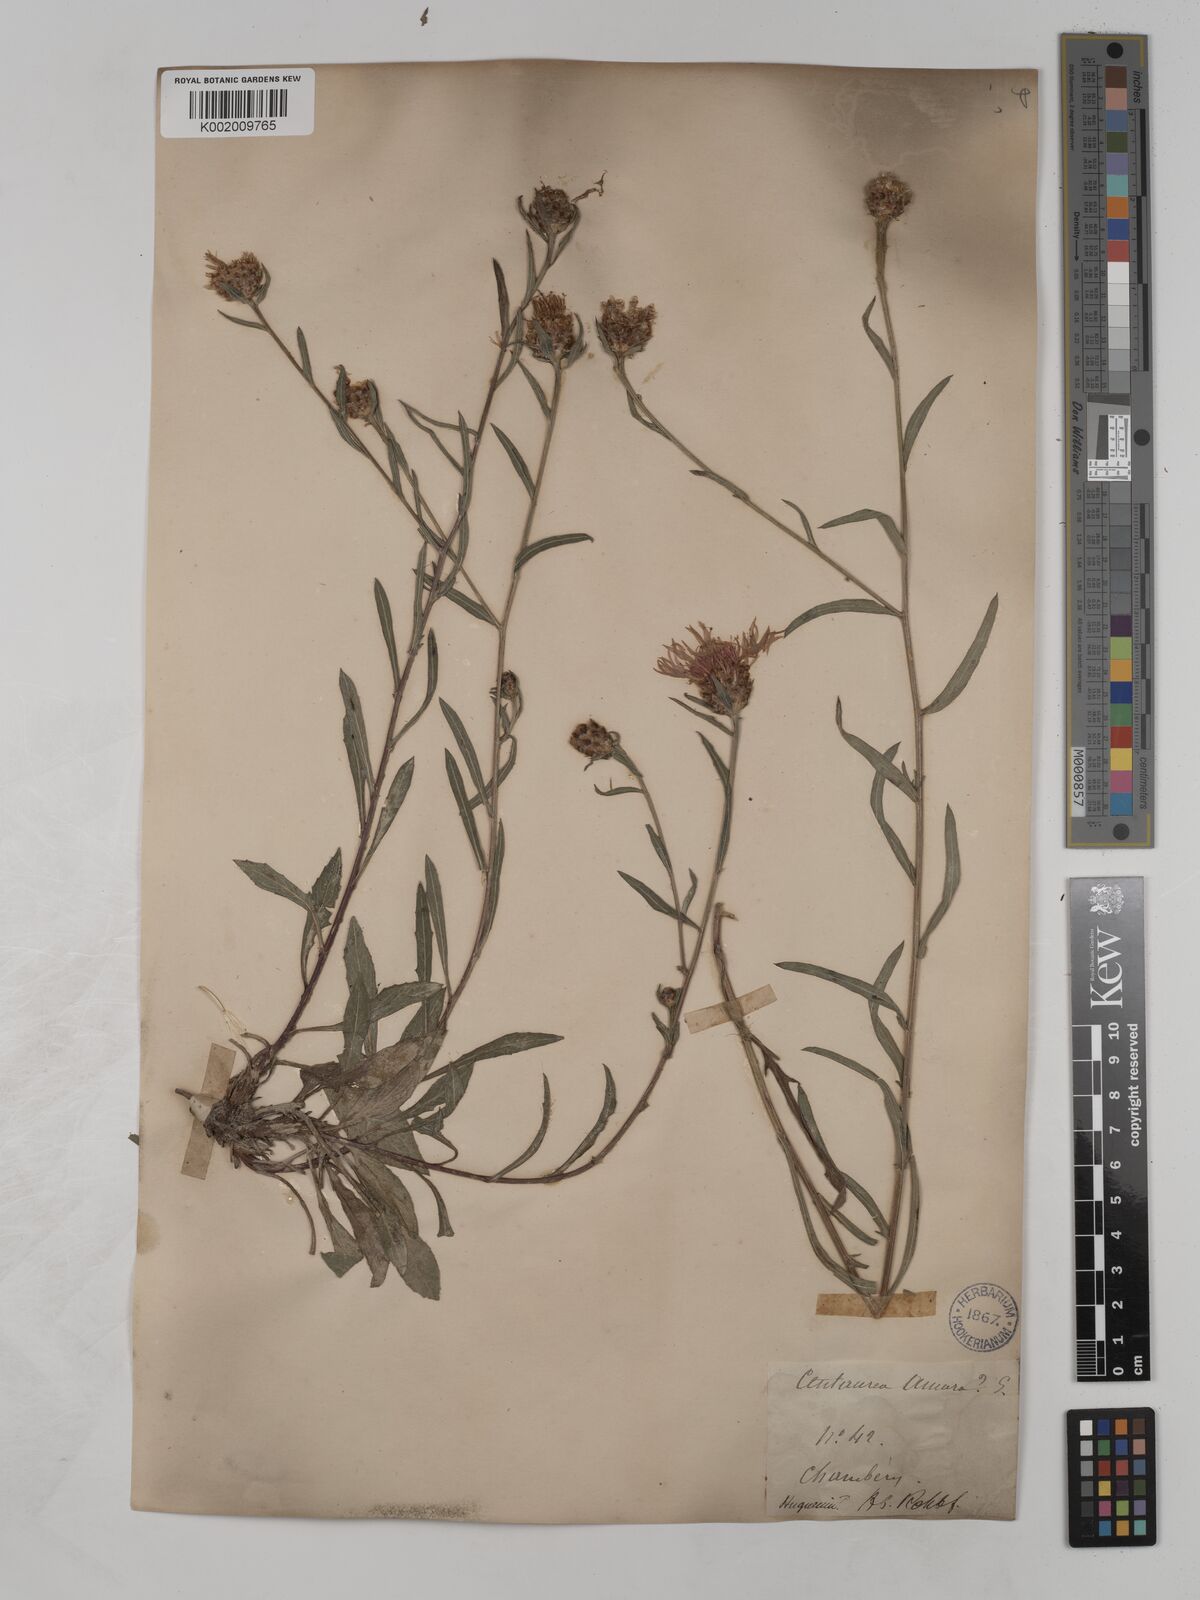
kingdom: Plantae
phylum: Tracheophyta
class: Magnoliopsida
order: Asterales
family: Asteraceae
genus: Centaurea
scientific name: Centaurea timbalii
